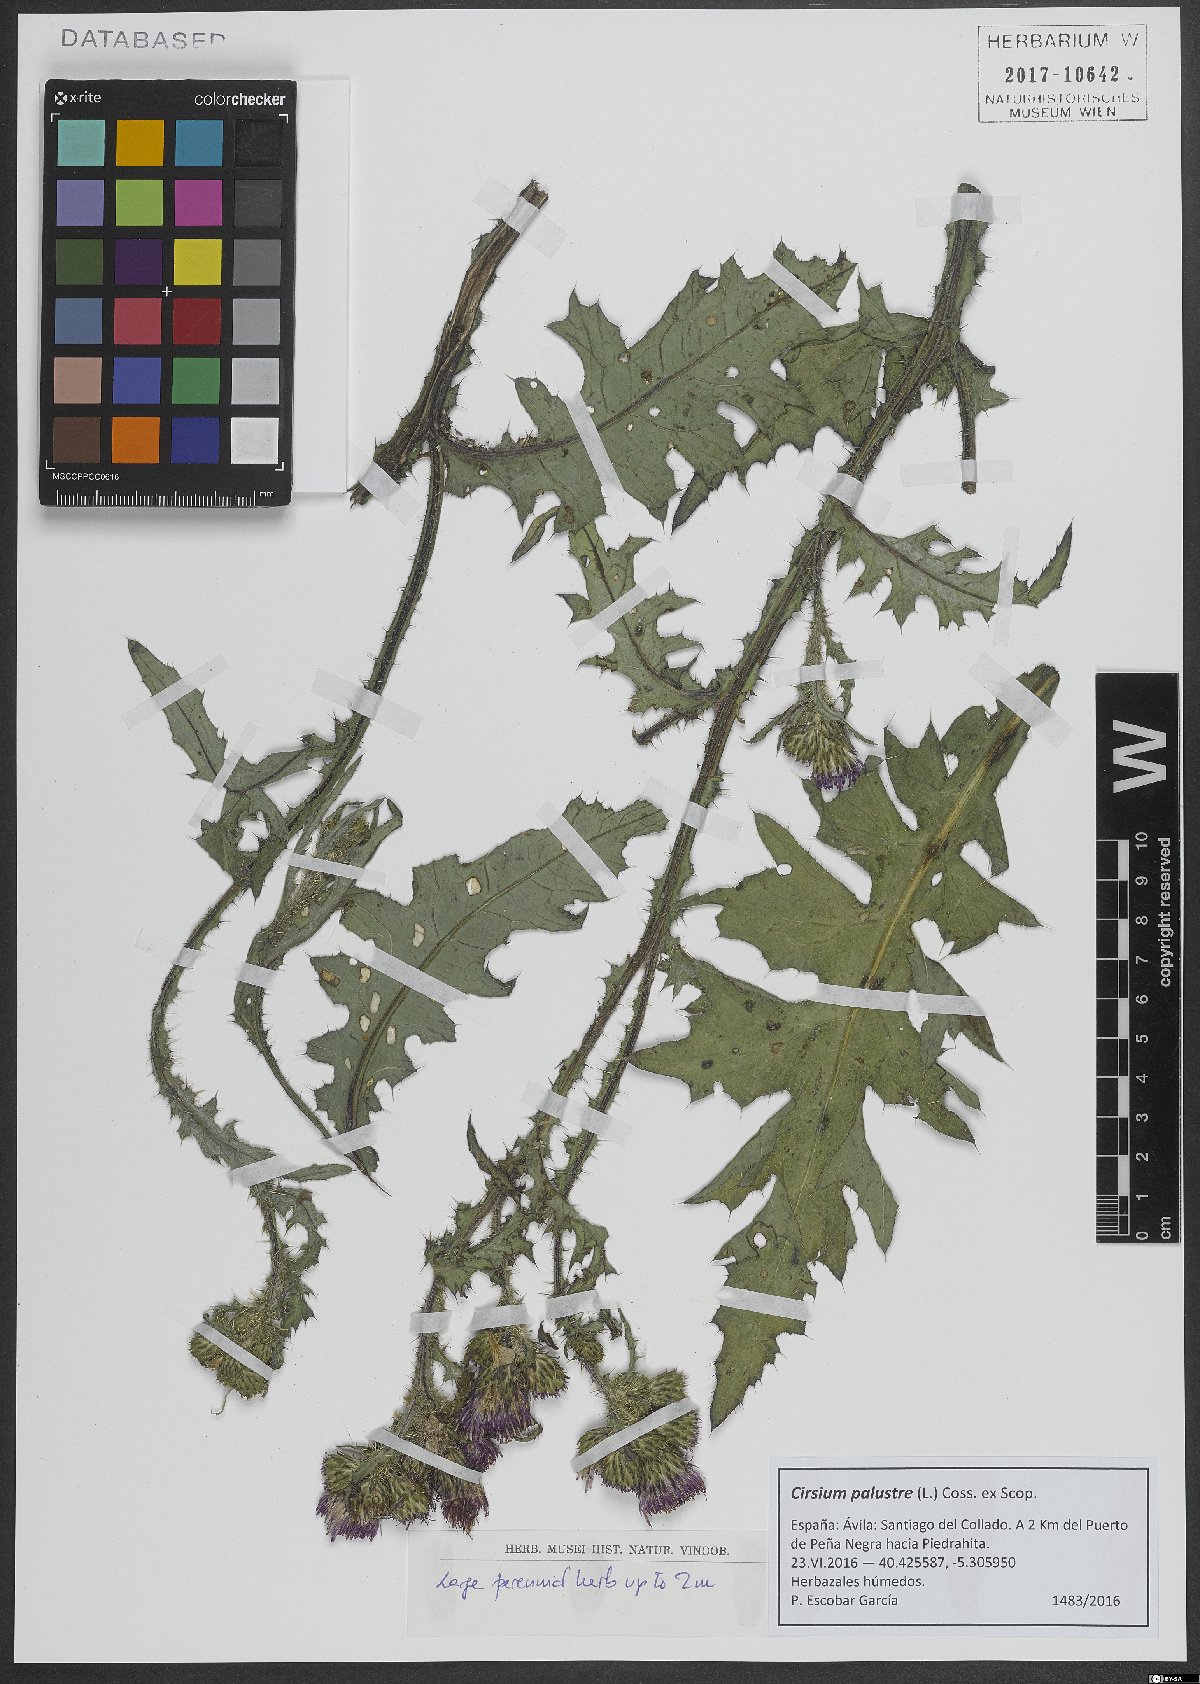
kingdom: Plantae
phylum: Tracheophyta
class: Magnoliopsida
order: Asterales
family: Asteraceae
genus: Cirsium
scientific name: Cirsium palustre
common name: Marsh thistle
